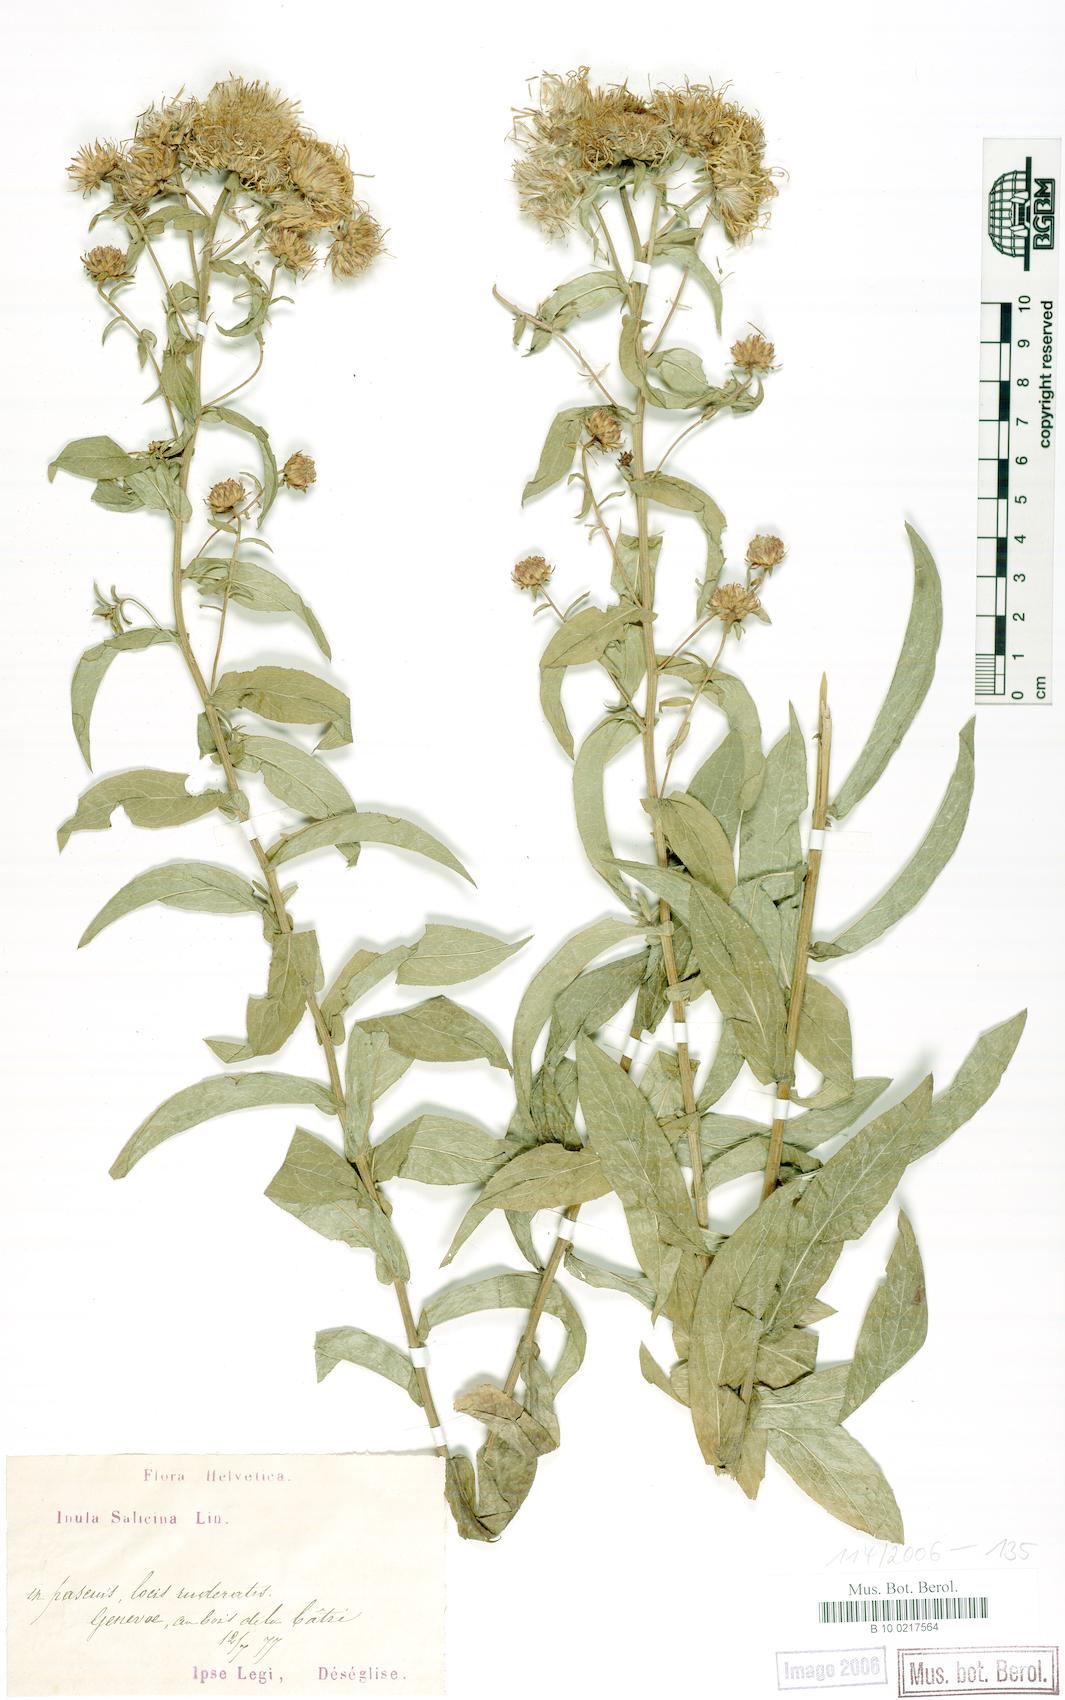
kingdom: Plantae
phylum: Tracheophyta
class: Magnoliopsida
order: Asterales
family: Asteraceae
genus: Pentanema
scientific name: Pentanema salicinum
